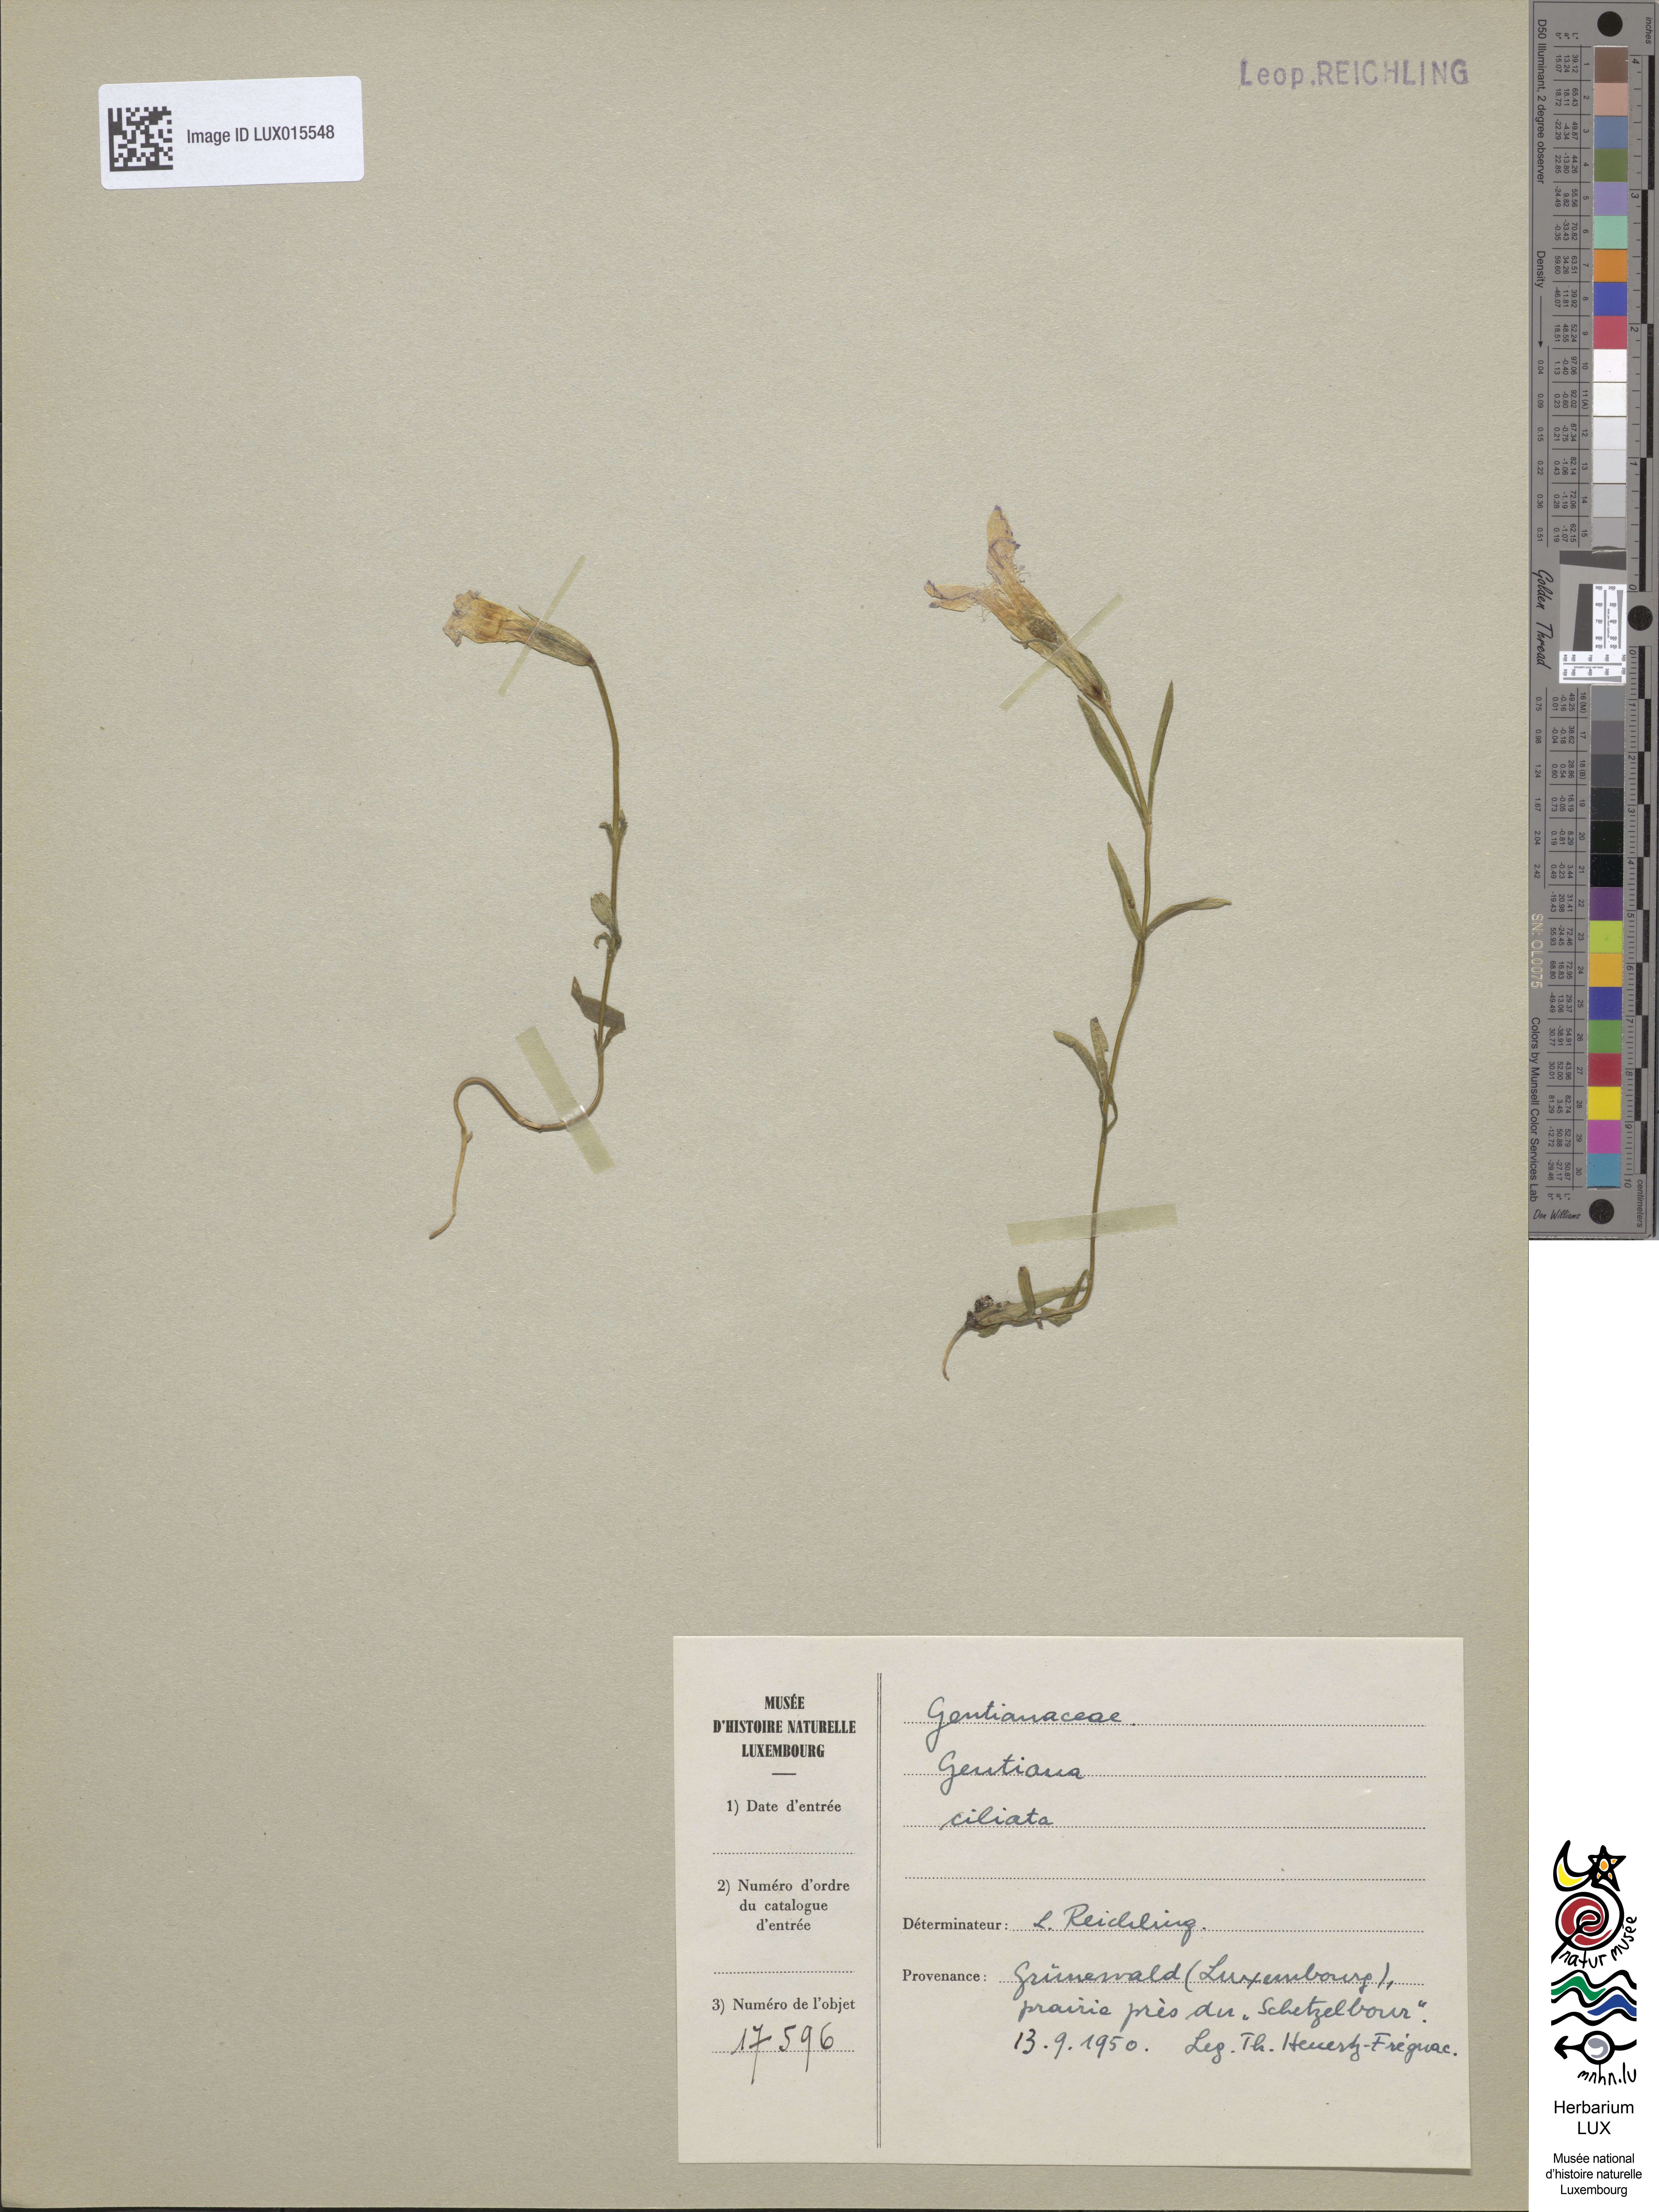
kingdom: Plantae
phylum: Tracheophyta
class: Magnoliopsida
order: Gentianales
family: Gentianaceae
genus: Gentianopsis
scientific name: Gentianopsis ciliata
